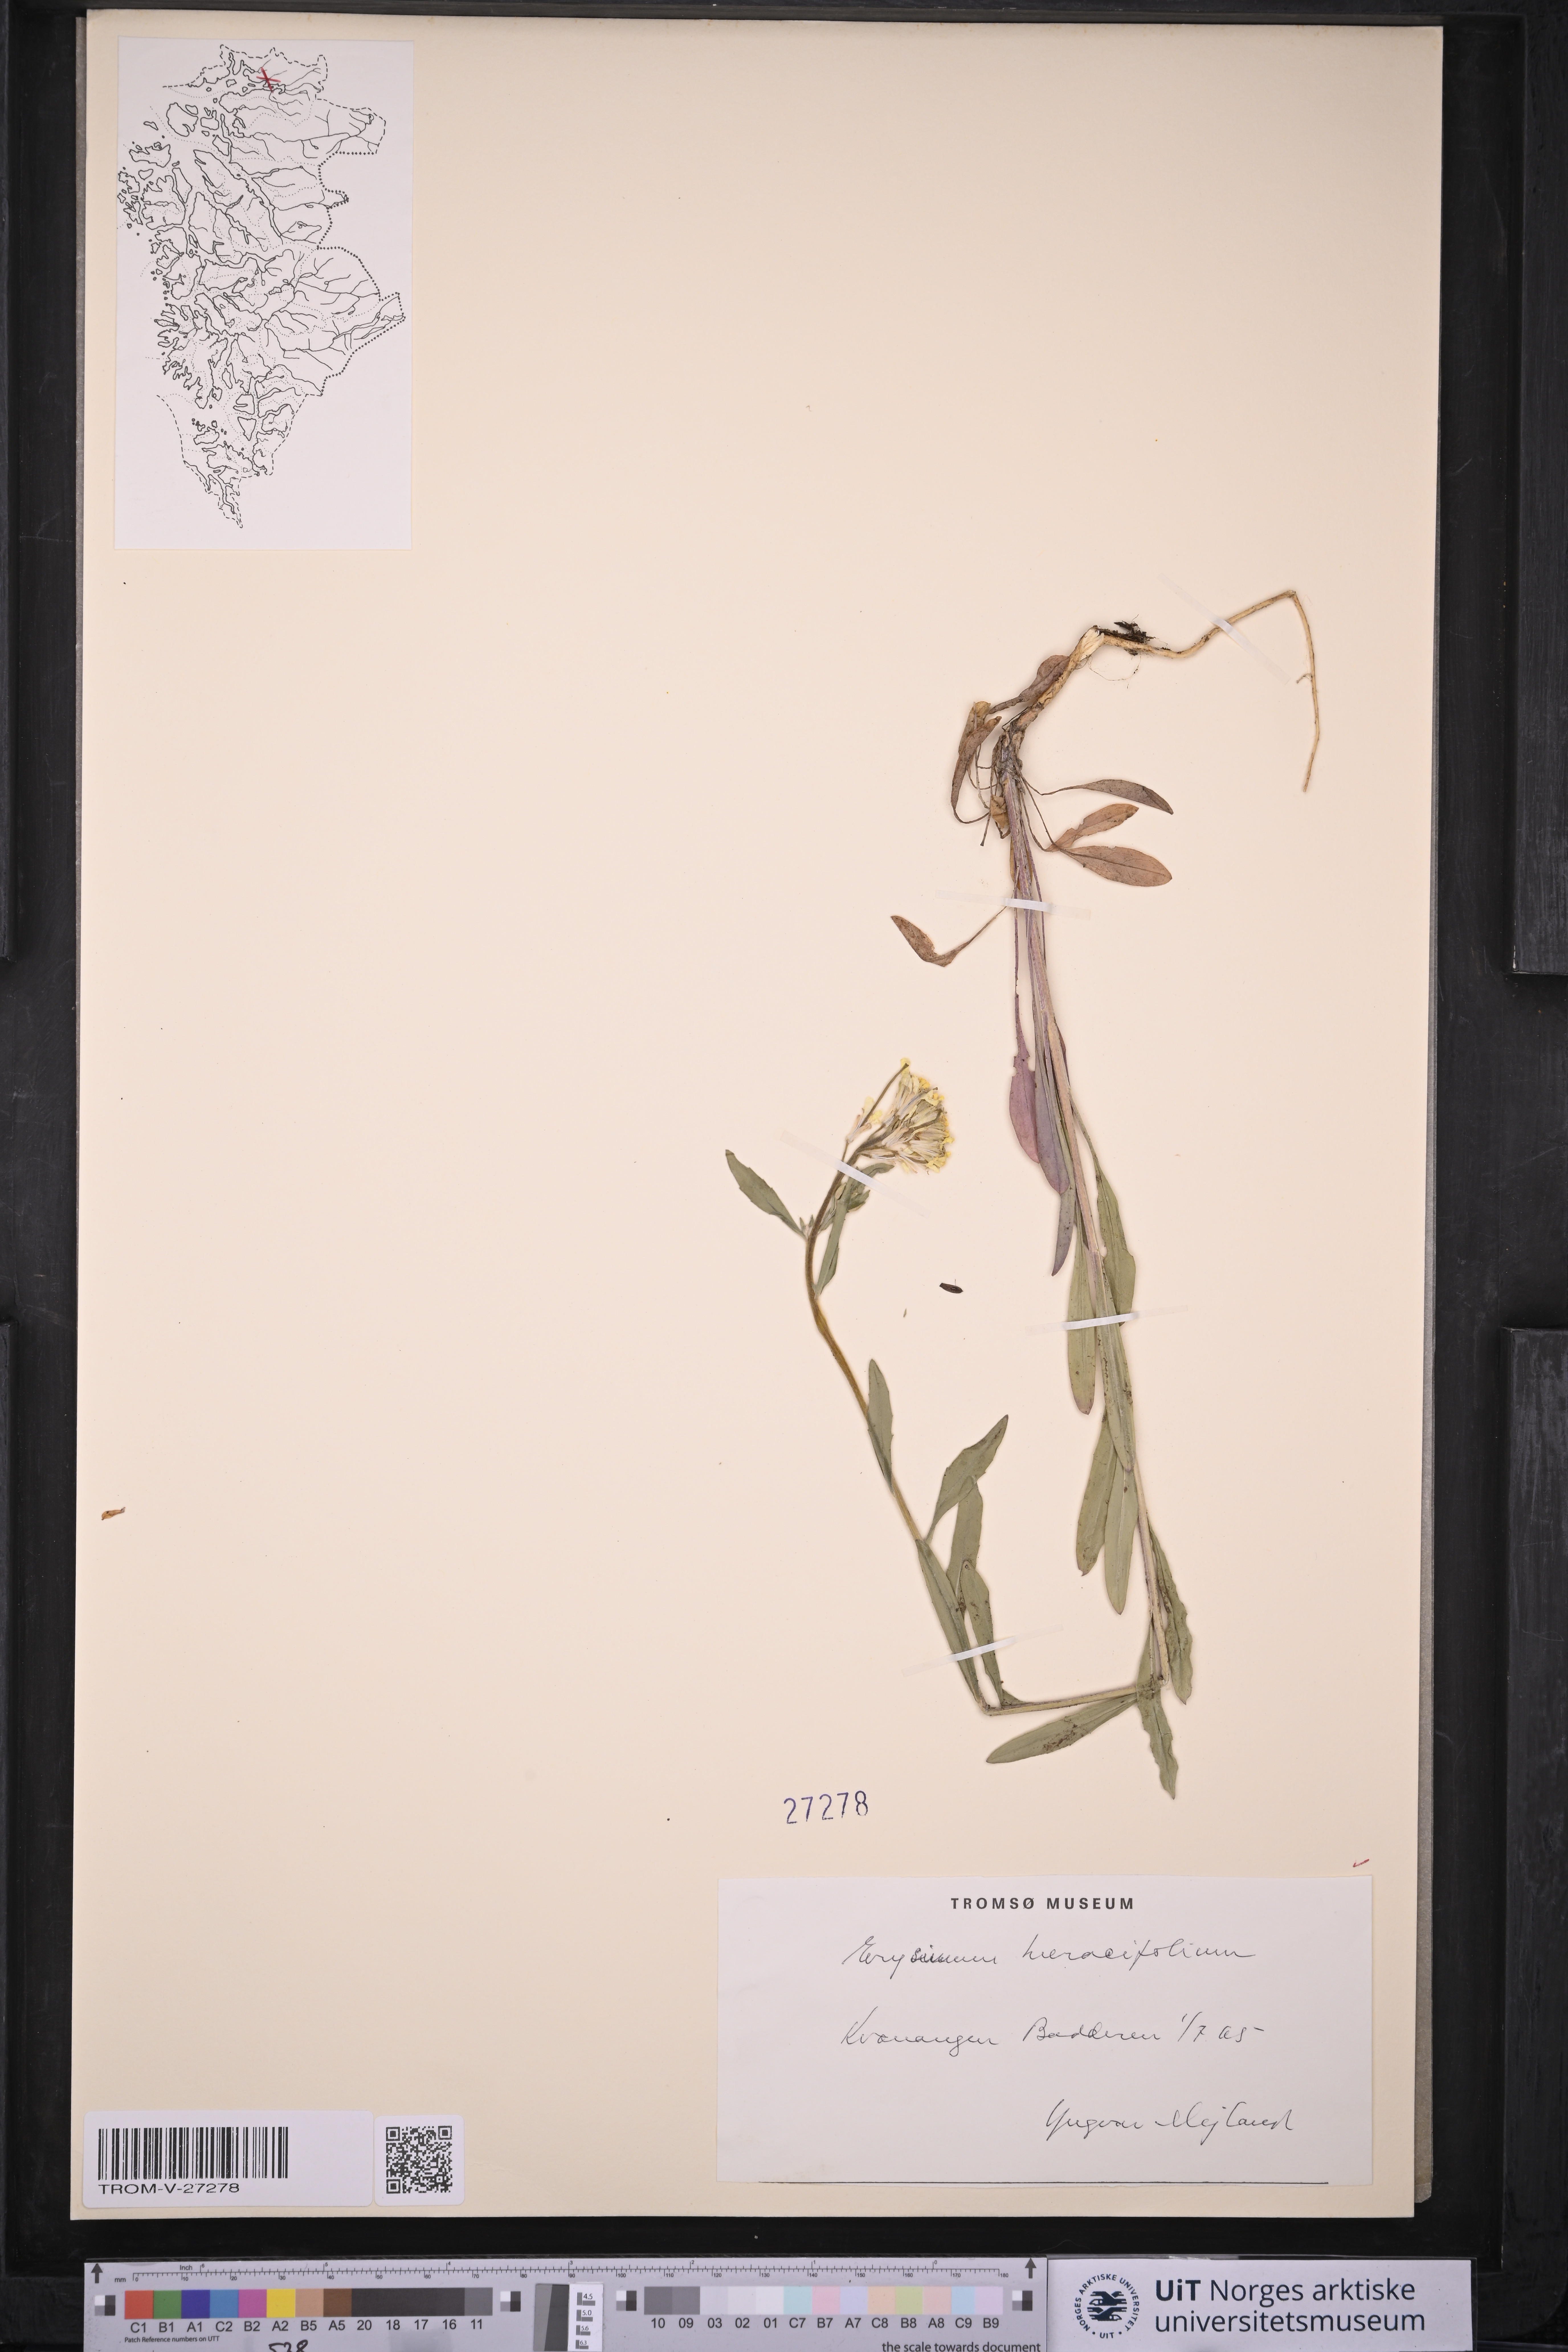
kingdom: Plantae
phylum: Tracheophyta
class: Magnoliopsida
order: Brassicales
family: Brassicaceae
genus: Erysimum
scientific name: Erysimum virgatum
